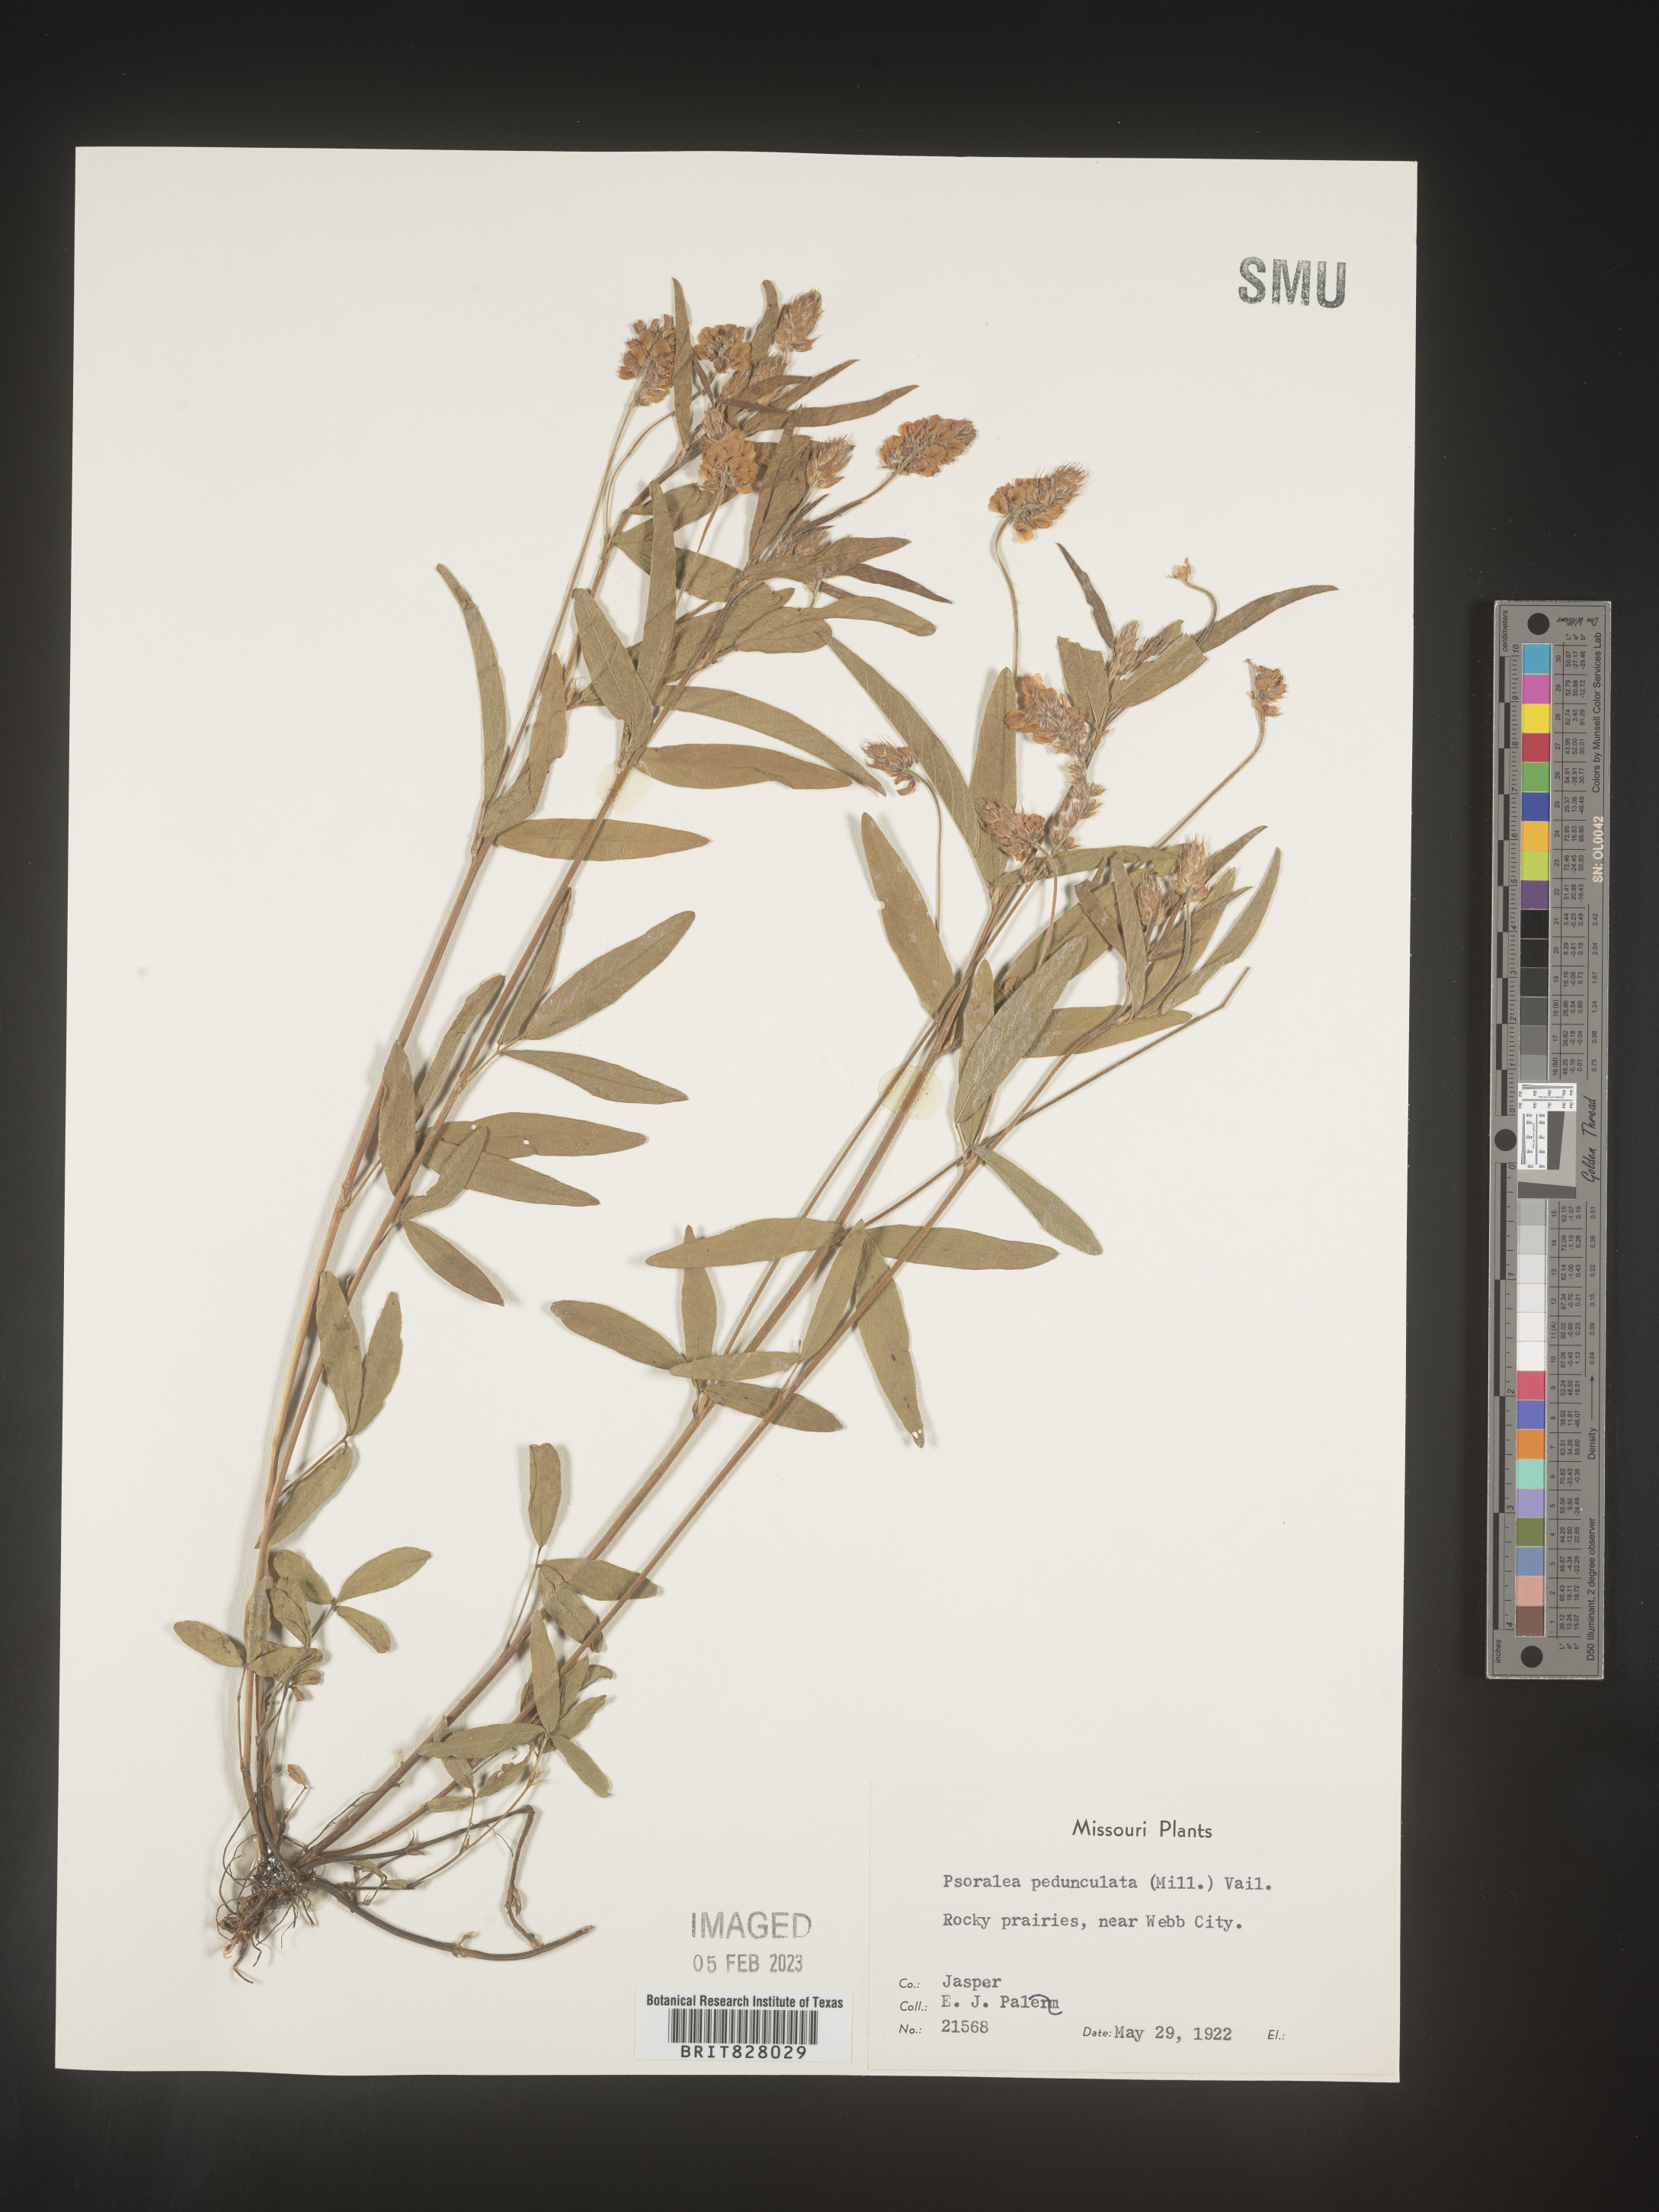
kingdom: Plantae
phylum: Tracheophyta
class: Magnoliopsida
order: Fabales
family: Fabaceae
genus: Orbexilum
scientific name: Orbexilum pedunculatum
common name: Sampson's snakeroot
